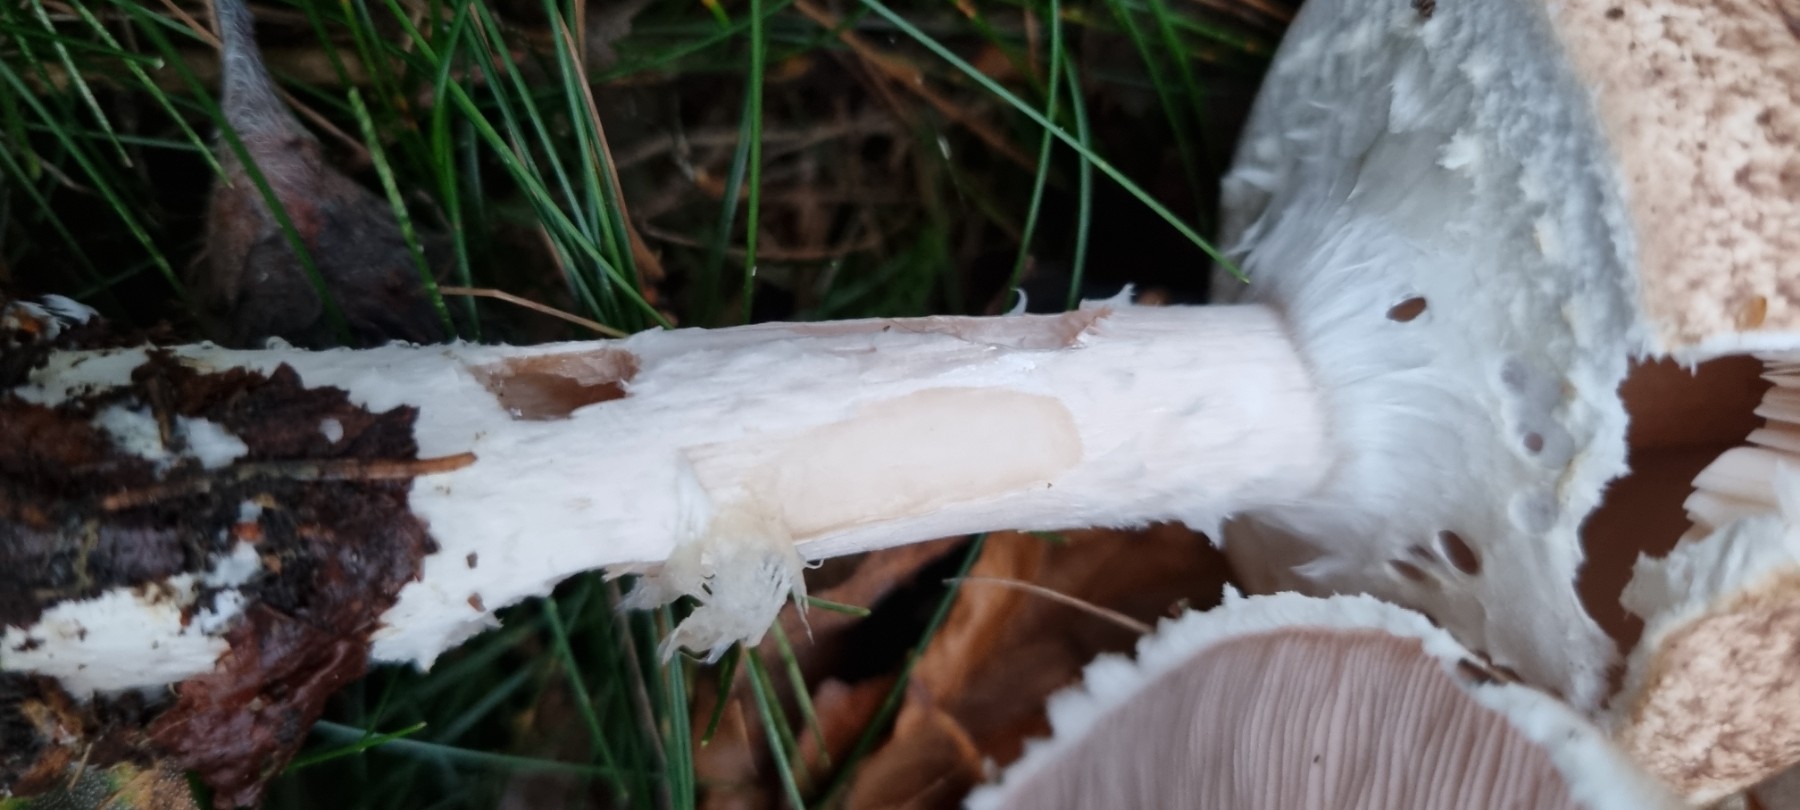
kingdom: Fungi
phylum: Basidiomycota
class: Agaricomycetes
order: Agaricales
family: Agaricaceae
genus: Agaricus
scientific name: Agaricus impudicus
